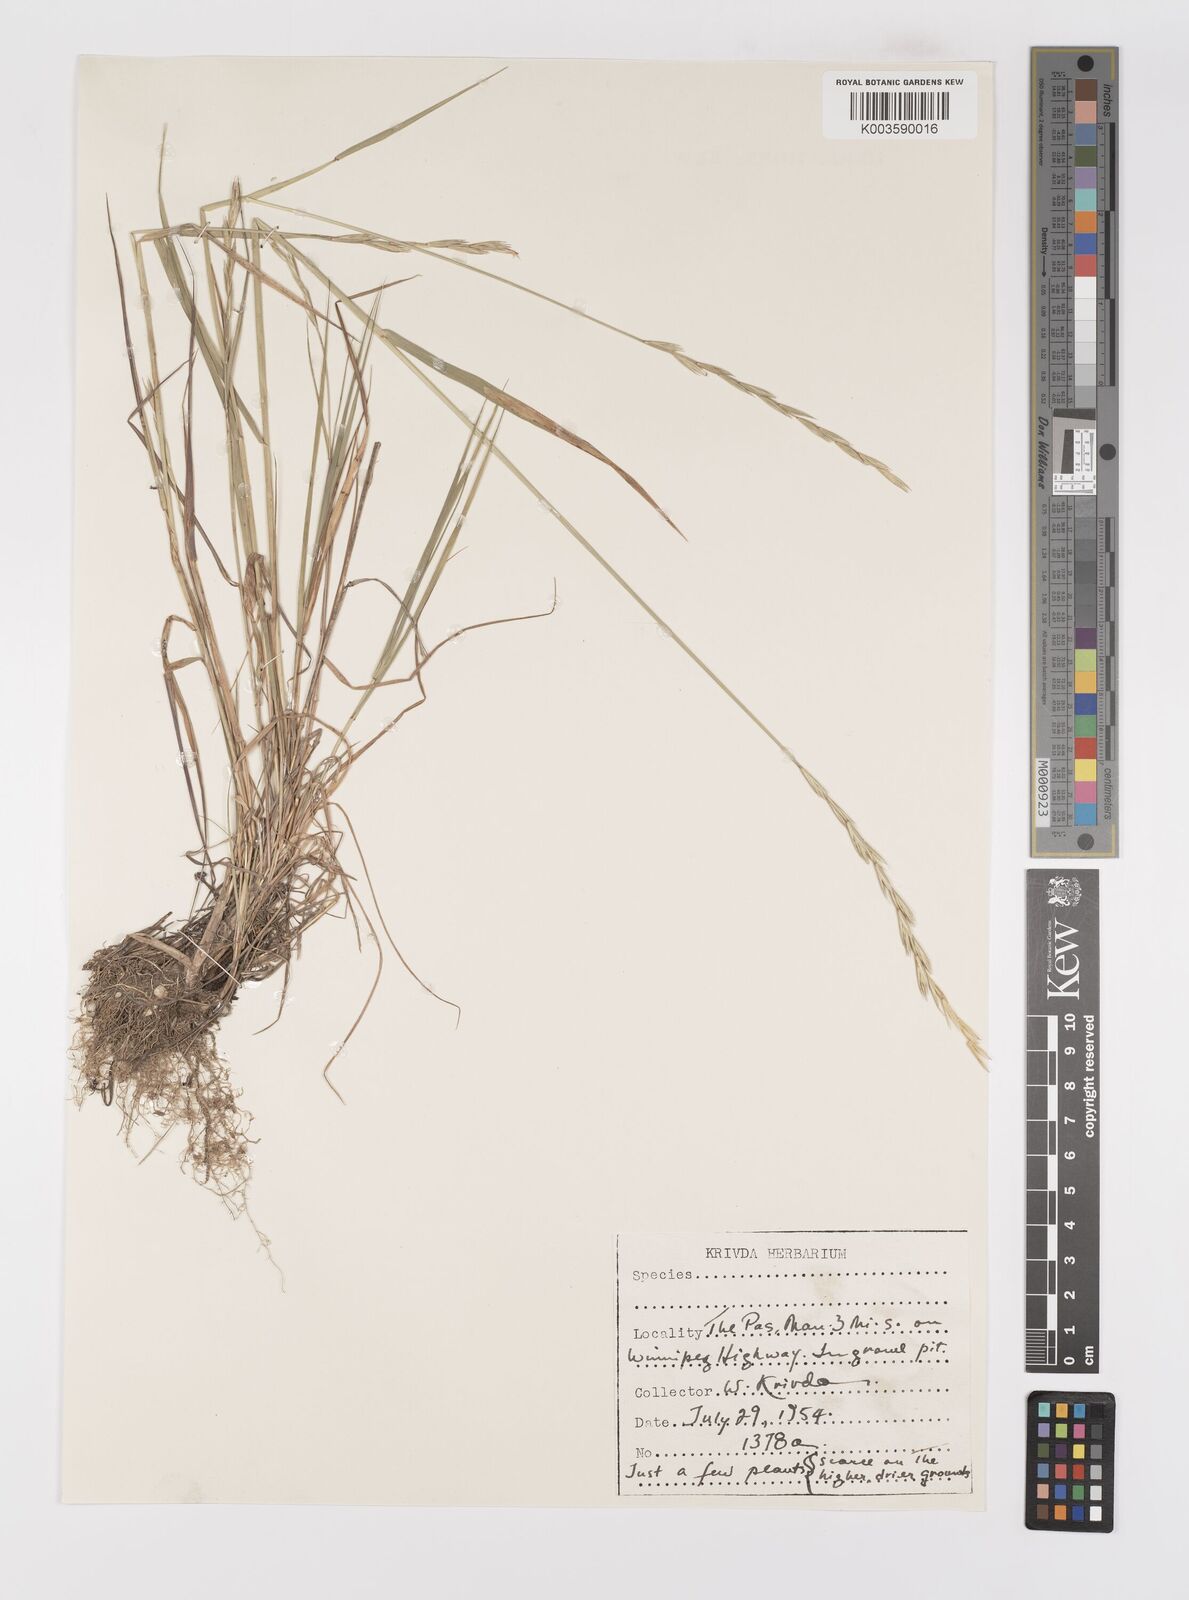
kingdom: Plantae
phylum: Tracheophyta
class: Liliopsida
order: Poales
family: Poaceae
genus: Elymus
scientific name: Elymus repens
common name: Quackgrass
